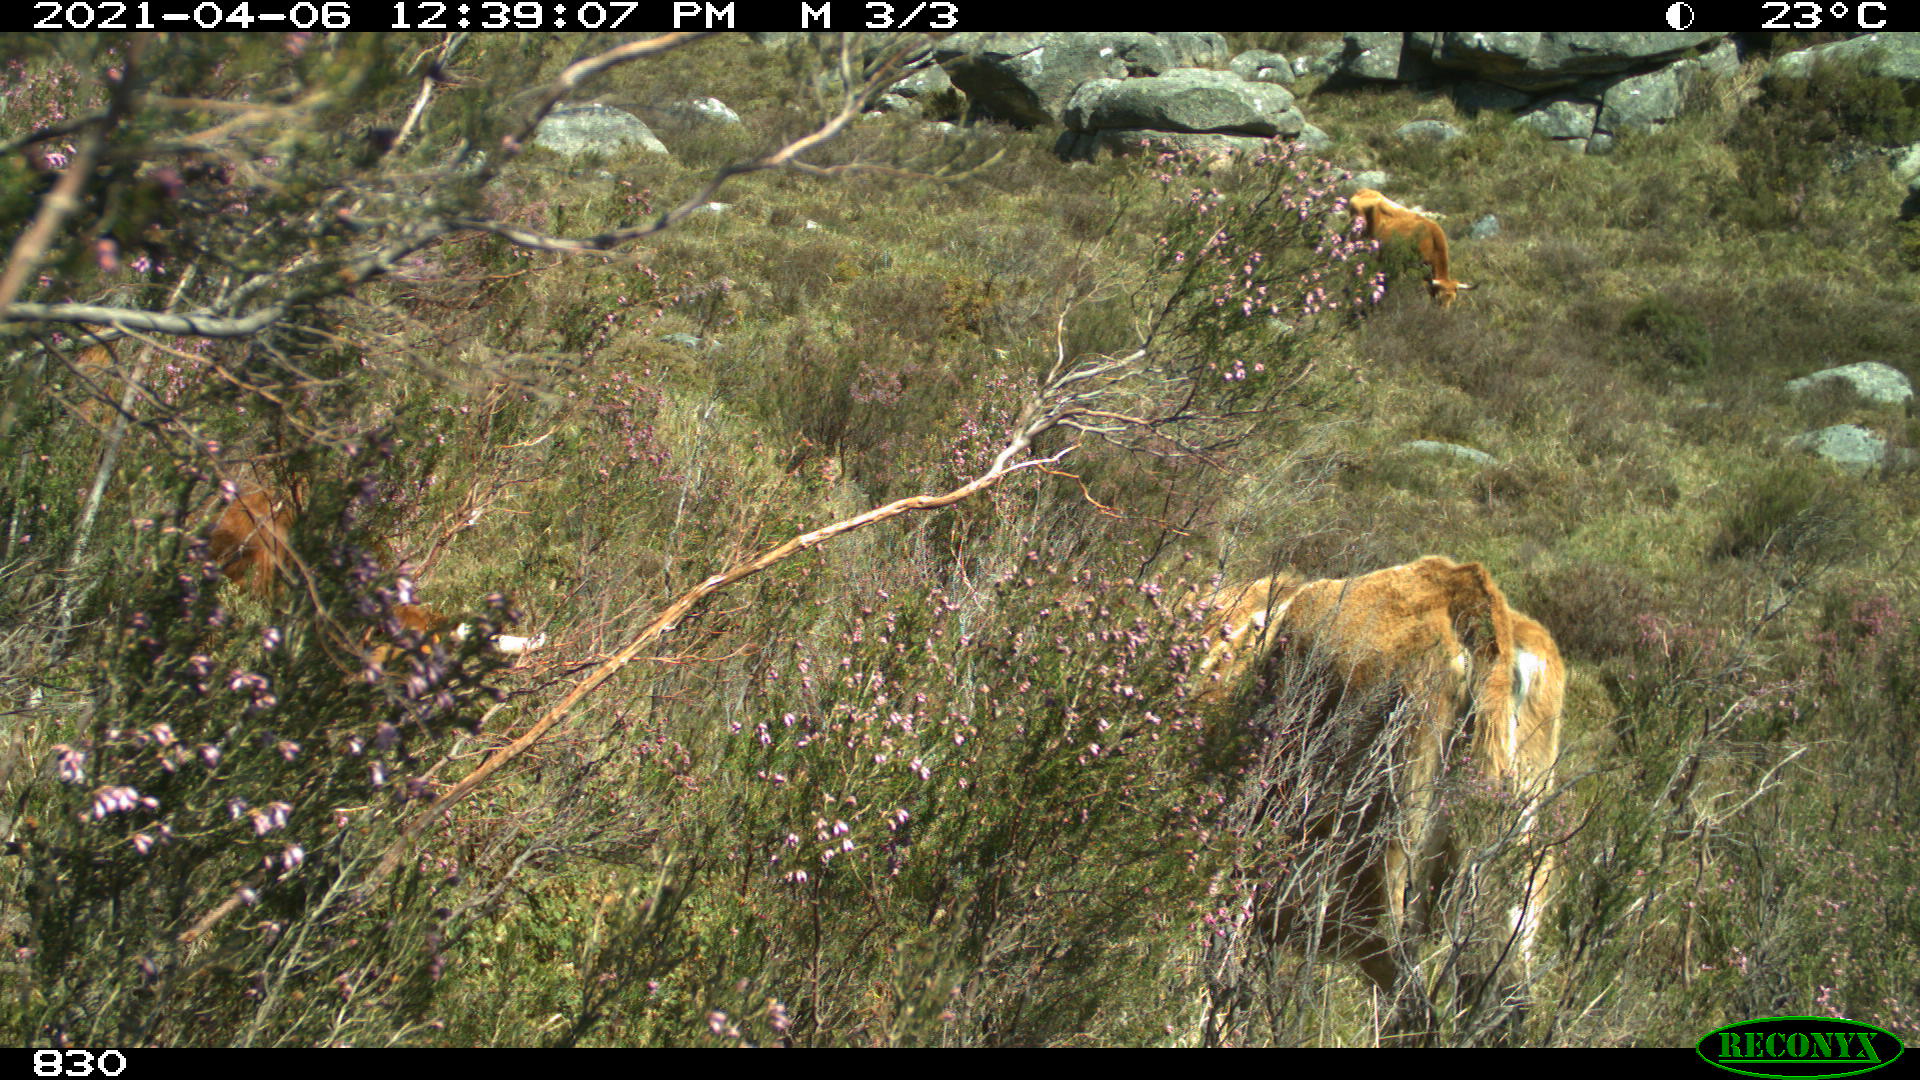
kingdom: Animalia
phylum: Chordata
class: Mammalia
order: Artiodactyla
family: Bovidae
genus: Bos
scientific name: Bos taurus
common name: Domesticated cattle
